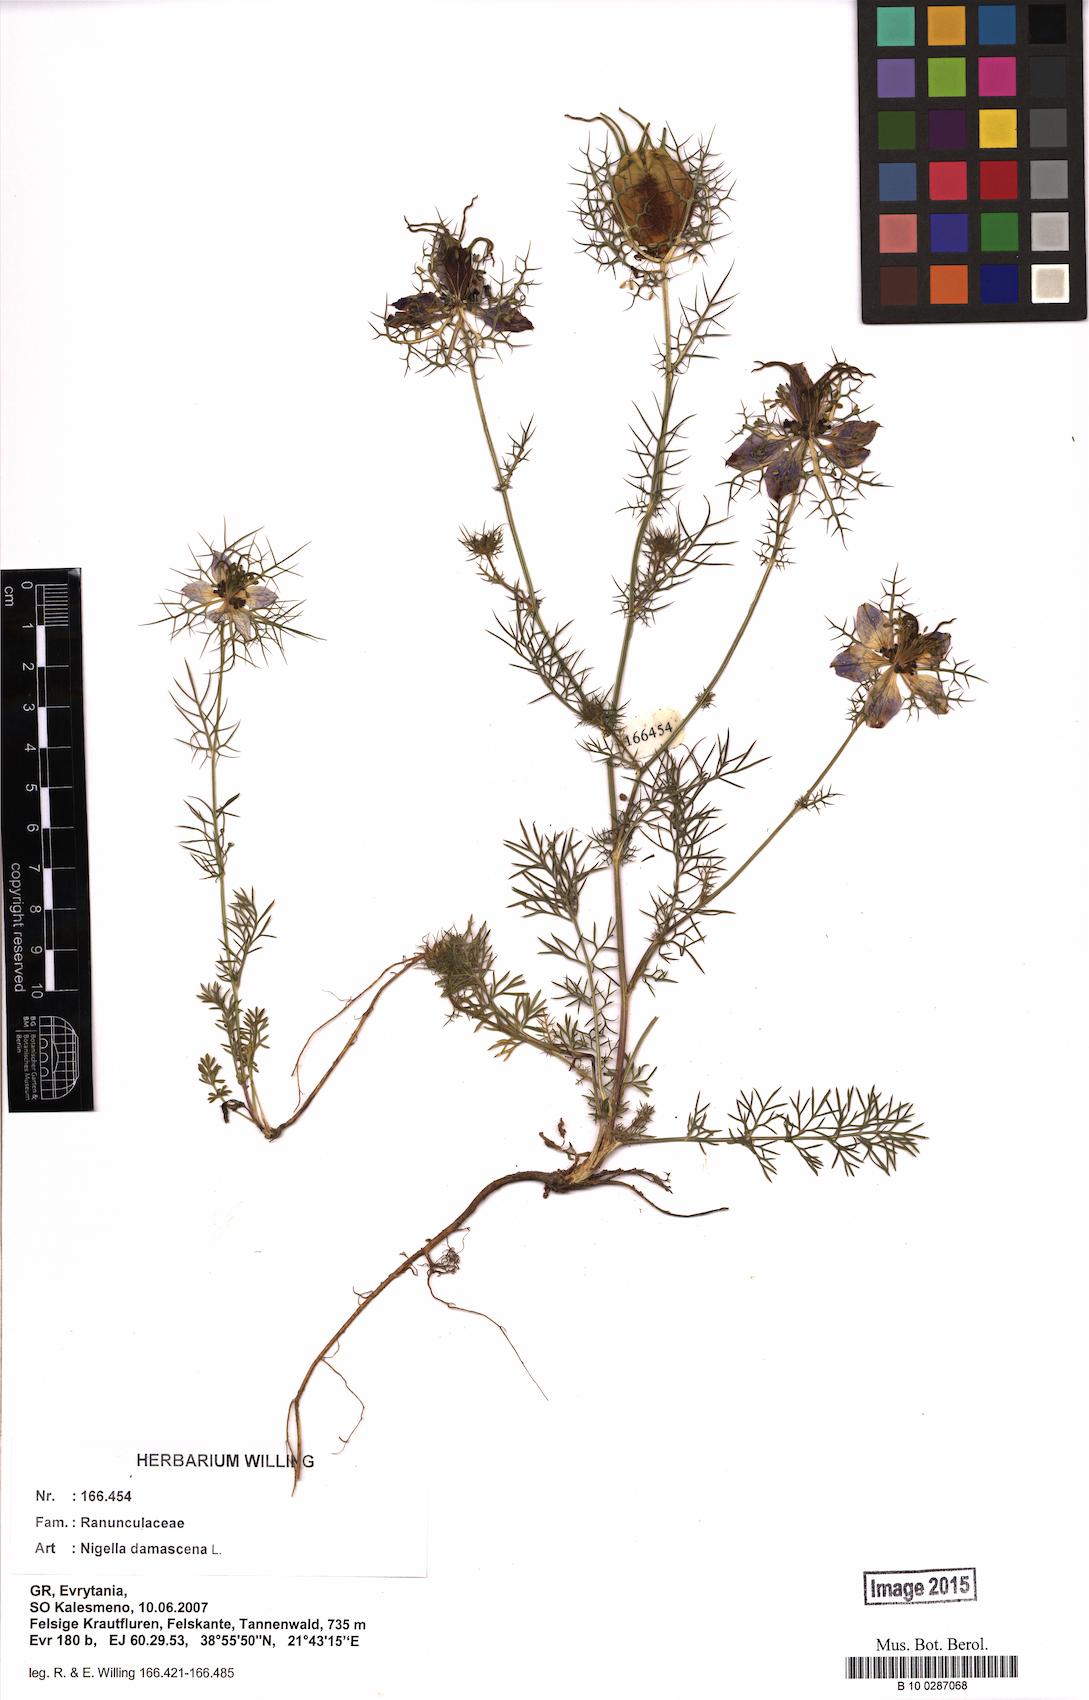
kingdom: Plantae
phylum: Tracheophyta
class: Magnoliopsida
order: Ranunculales
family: Ranunculaceae
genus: Nigella
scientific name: Nigella damascena
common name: Love-in-a-mist
